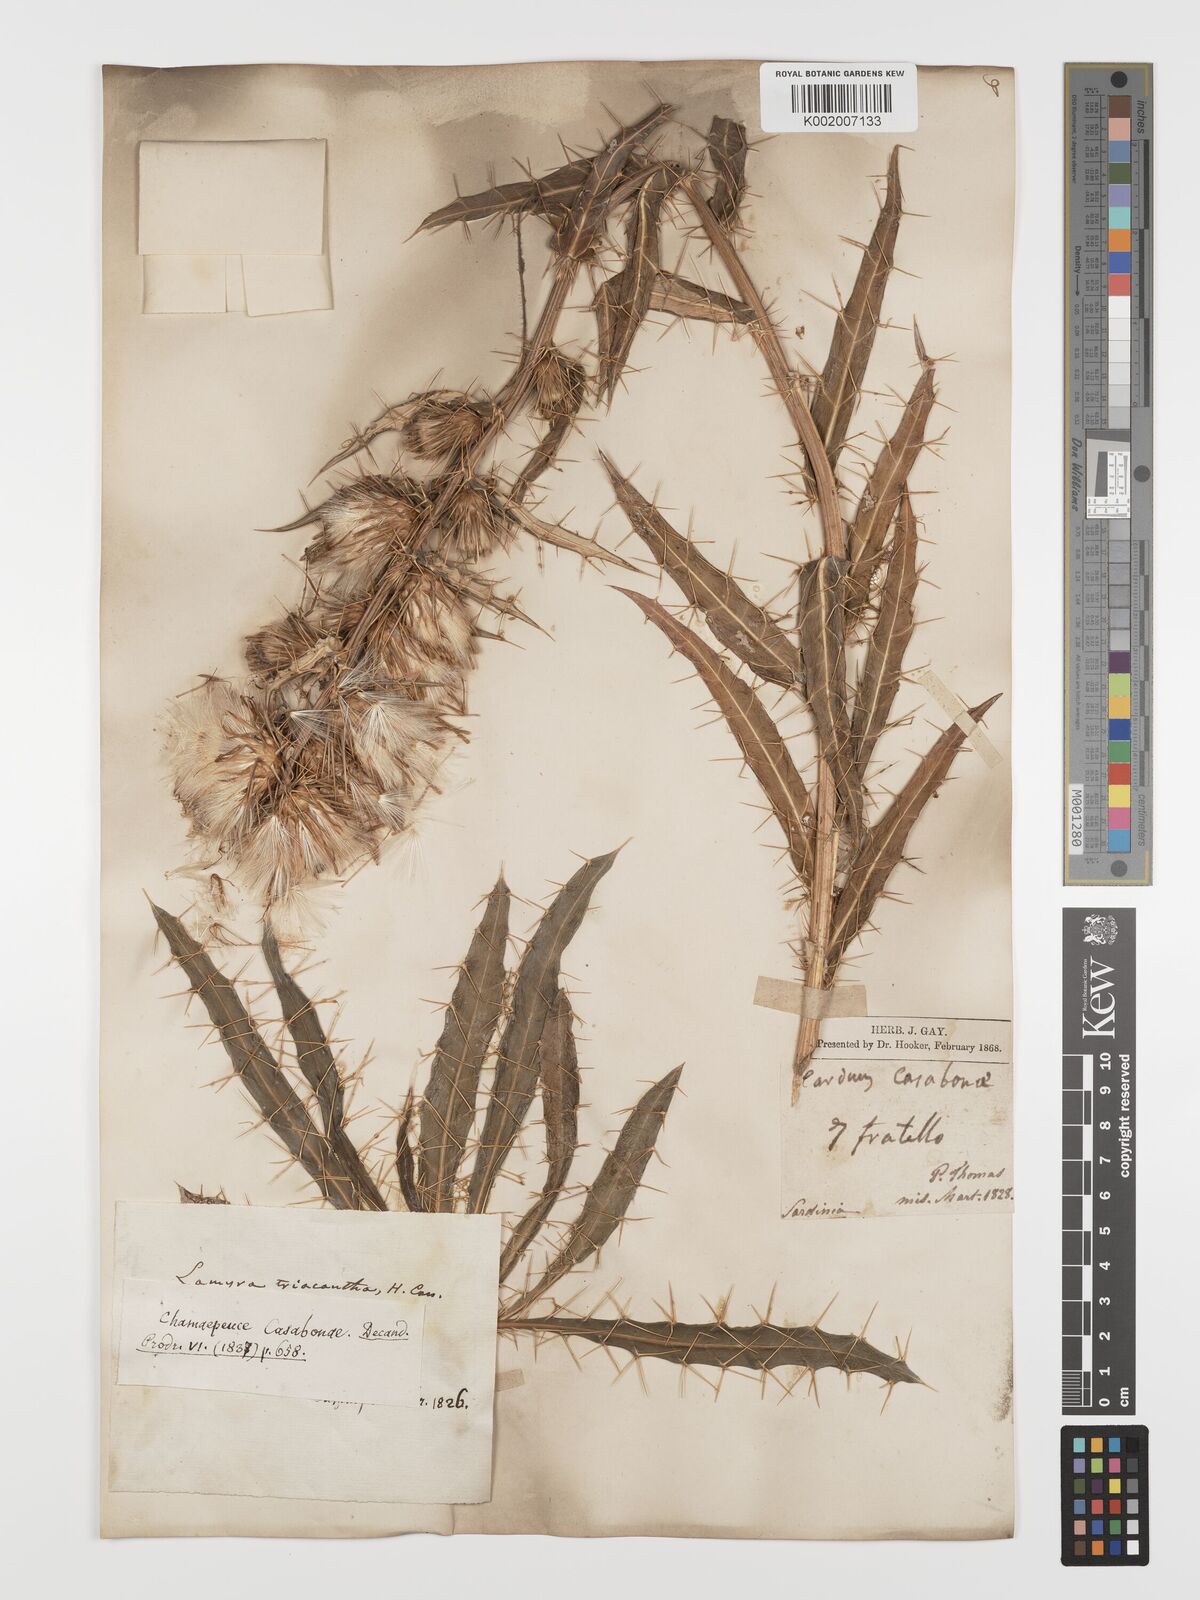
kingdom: Plantae
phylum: Tracheophyta
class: Magnoliopsida
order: Asterales
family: Asteraceae
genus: Ptilostemon
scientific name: Ptilostemon casabonae
